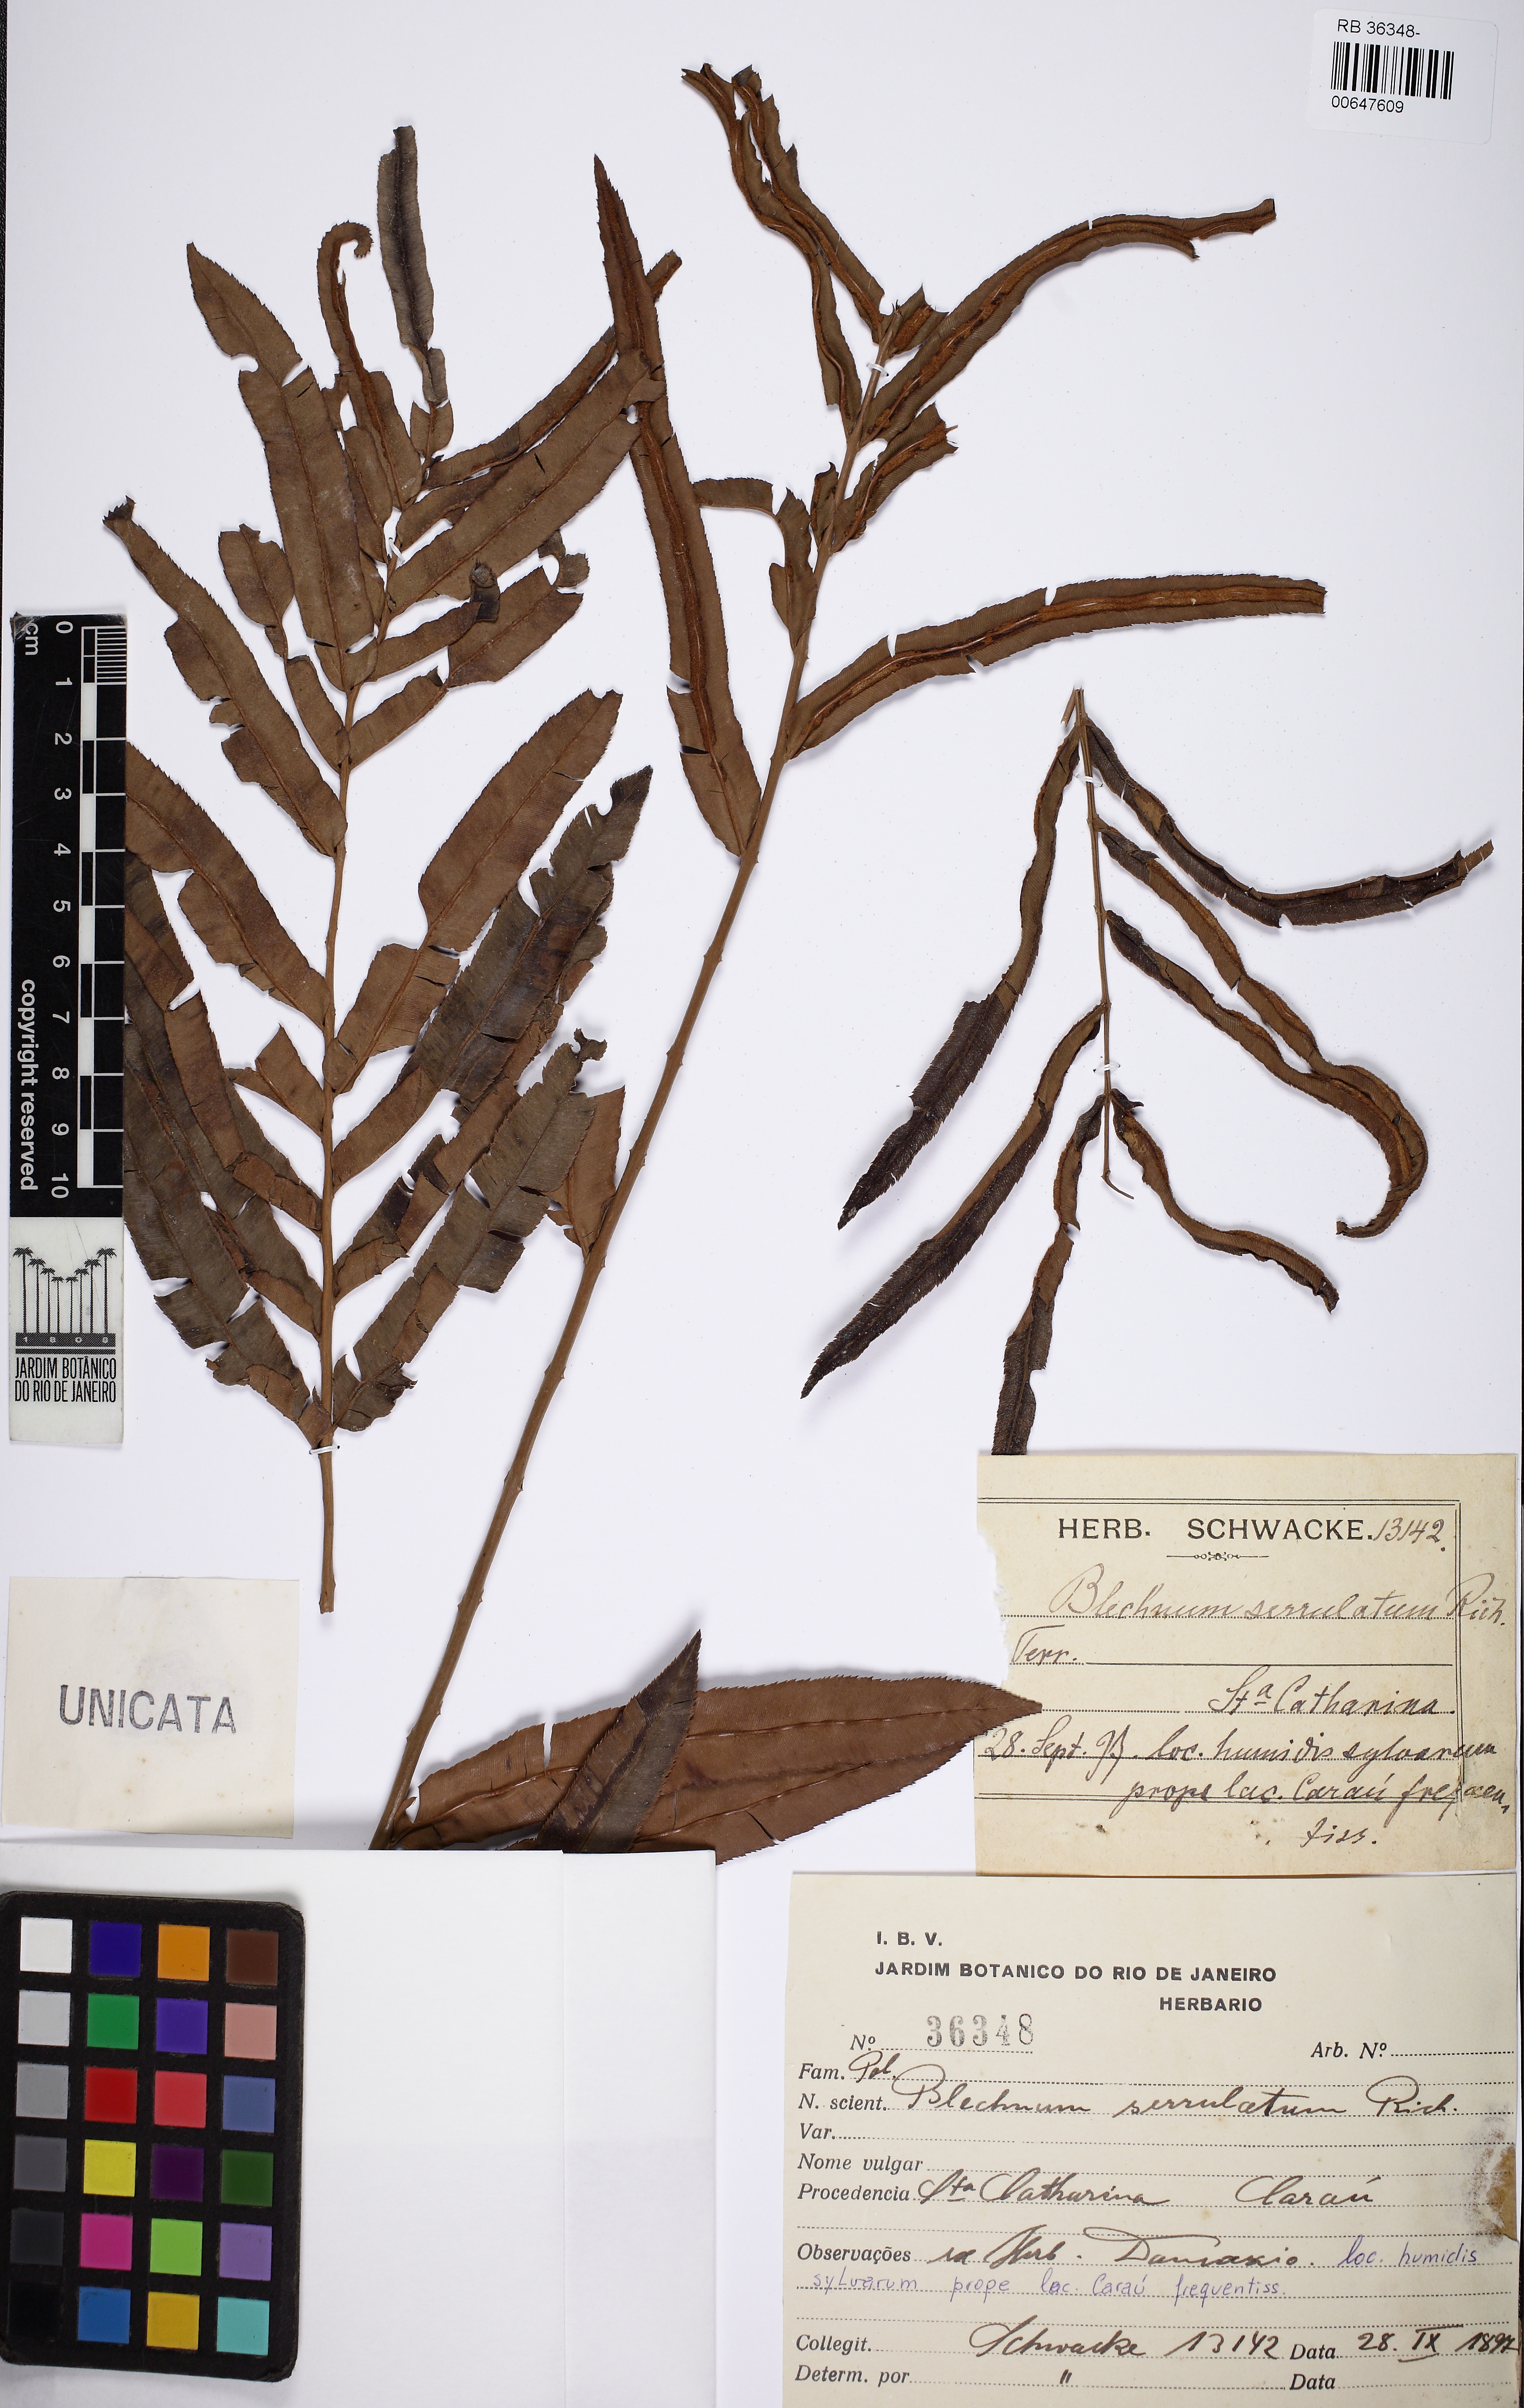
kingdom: Plantae
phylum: Tracheophyta
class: Polypodiopsida
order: Polypodiales
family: Blechnaceae
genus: Telmatoblechnum
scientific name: Telmatoblechnum serrulatum
